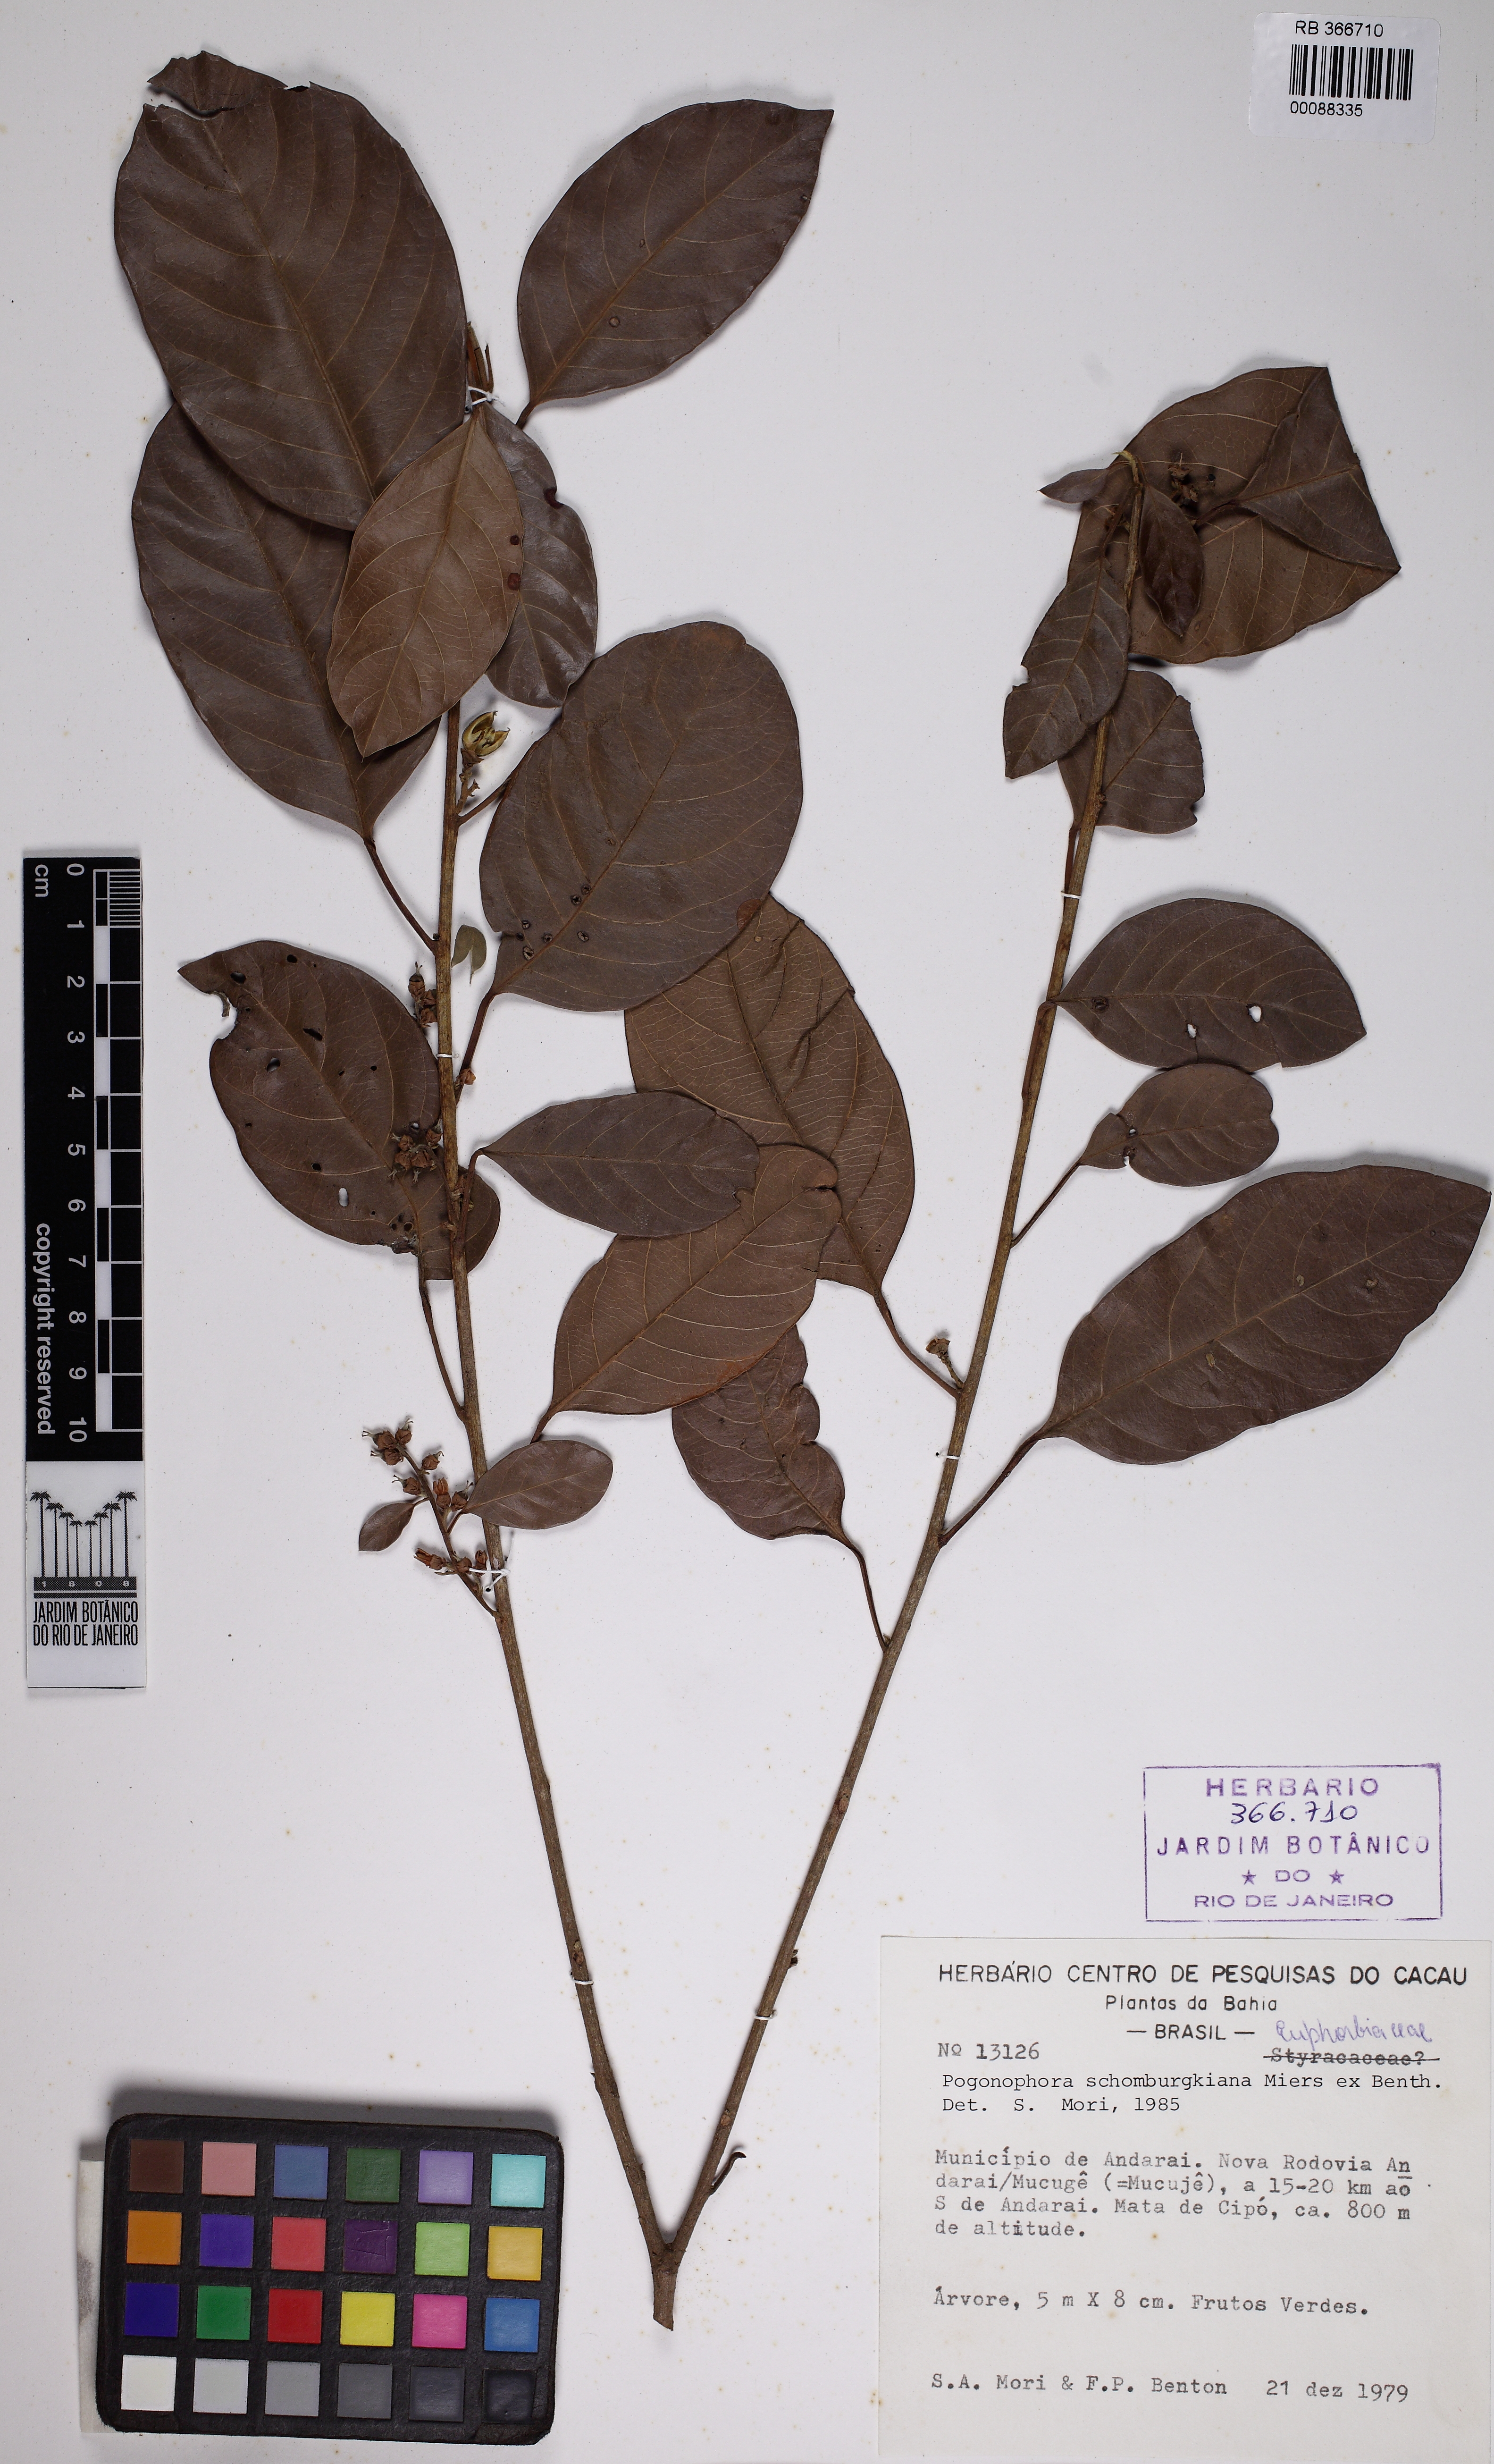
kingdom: Plantae
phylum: Tracheophyta
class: Magnoliopsida
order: Malpighiales
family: Peraceae
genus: Pogonophora
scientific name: Pogonophora schomburgkiana
